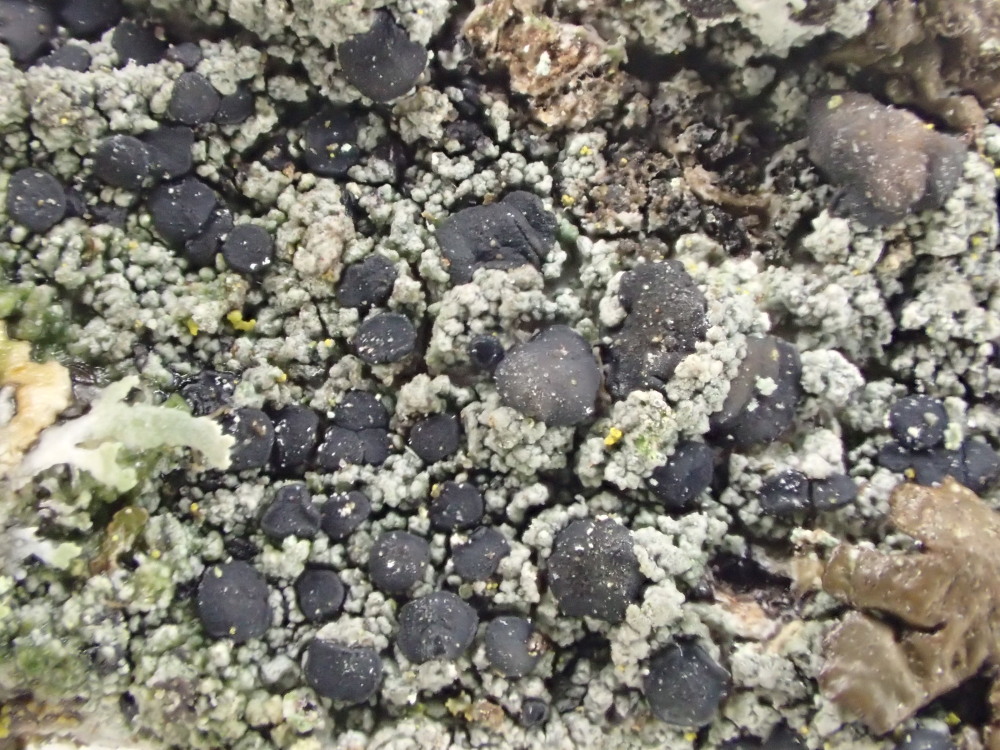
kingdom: Fungi
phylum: Ascomycota
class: Lecanoromycetes
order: Lecanorales
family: Lecanoraceae
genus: Lecidella
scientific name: Lecidella euphorea
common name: vortet skivelav
